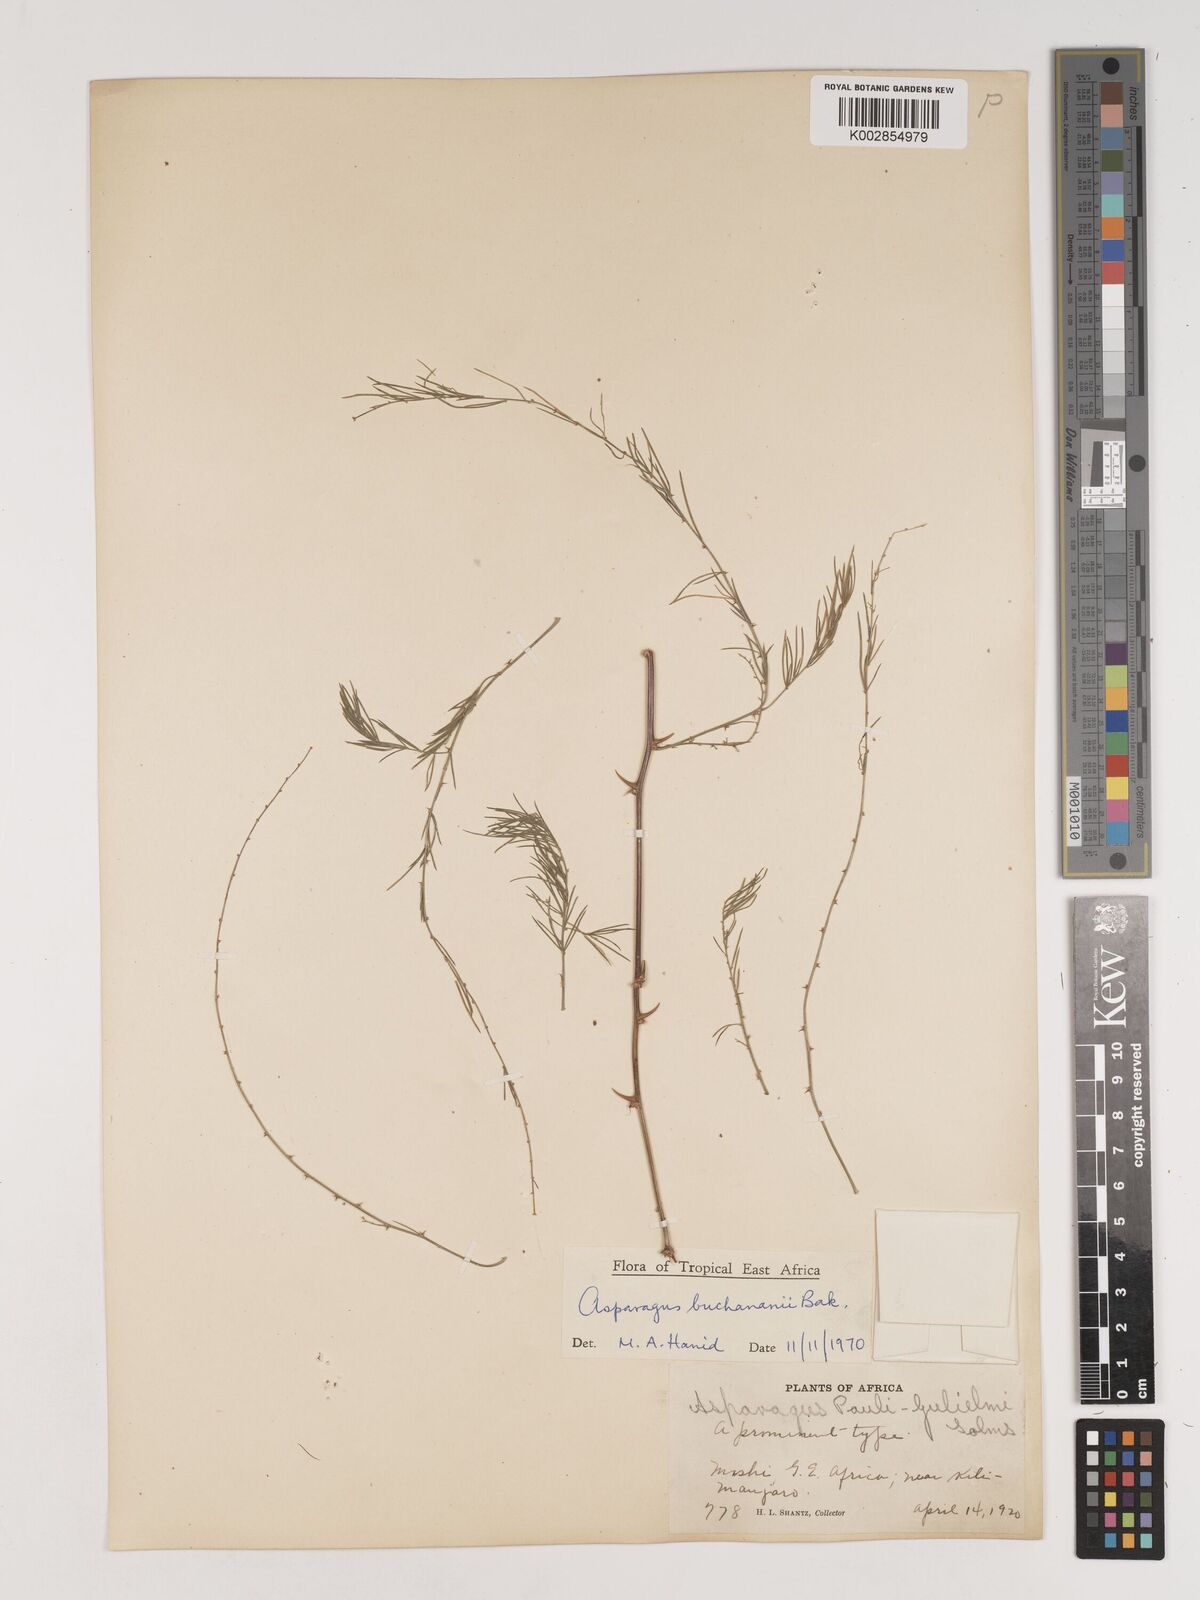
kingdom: Plantae
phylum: Tracheophyta
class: Liliopsida
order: Asparagales
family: Asparagaceae
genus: Asparagus
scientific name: Asparagus buchananii
